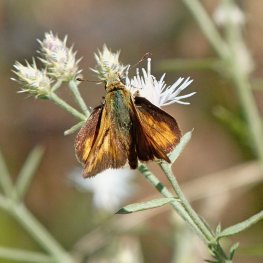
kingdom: Animalia
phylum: Arthropoda
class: Insecta
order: Lepidoptera
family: Hesperiidae
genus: Ochlodes
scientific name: Ochlodes sylvanoides
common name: Woodland Skipper
